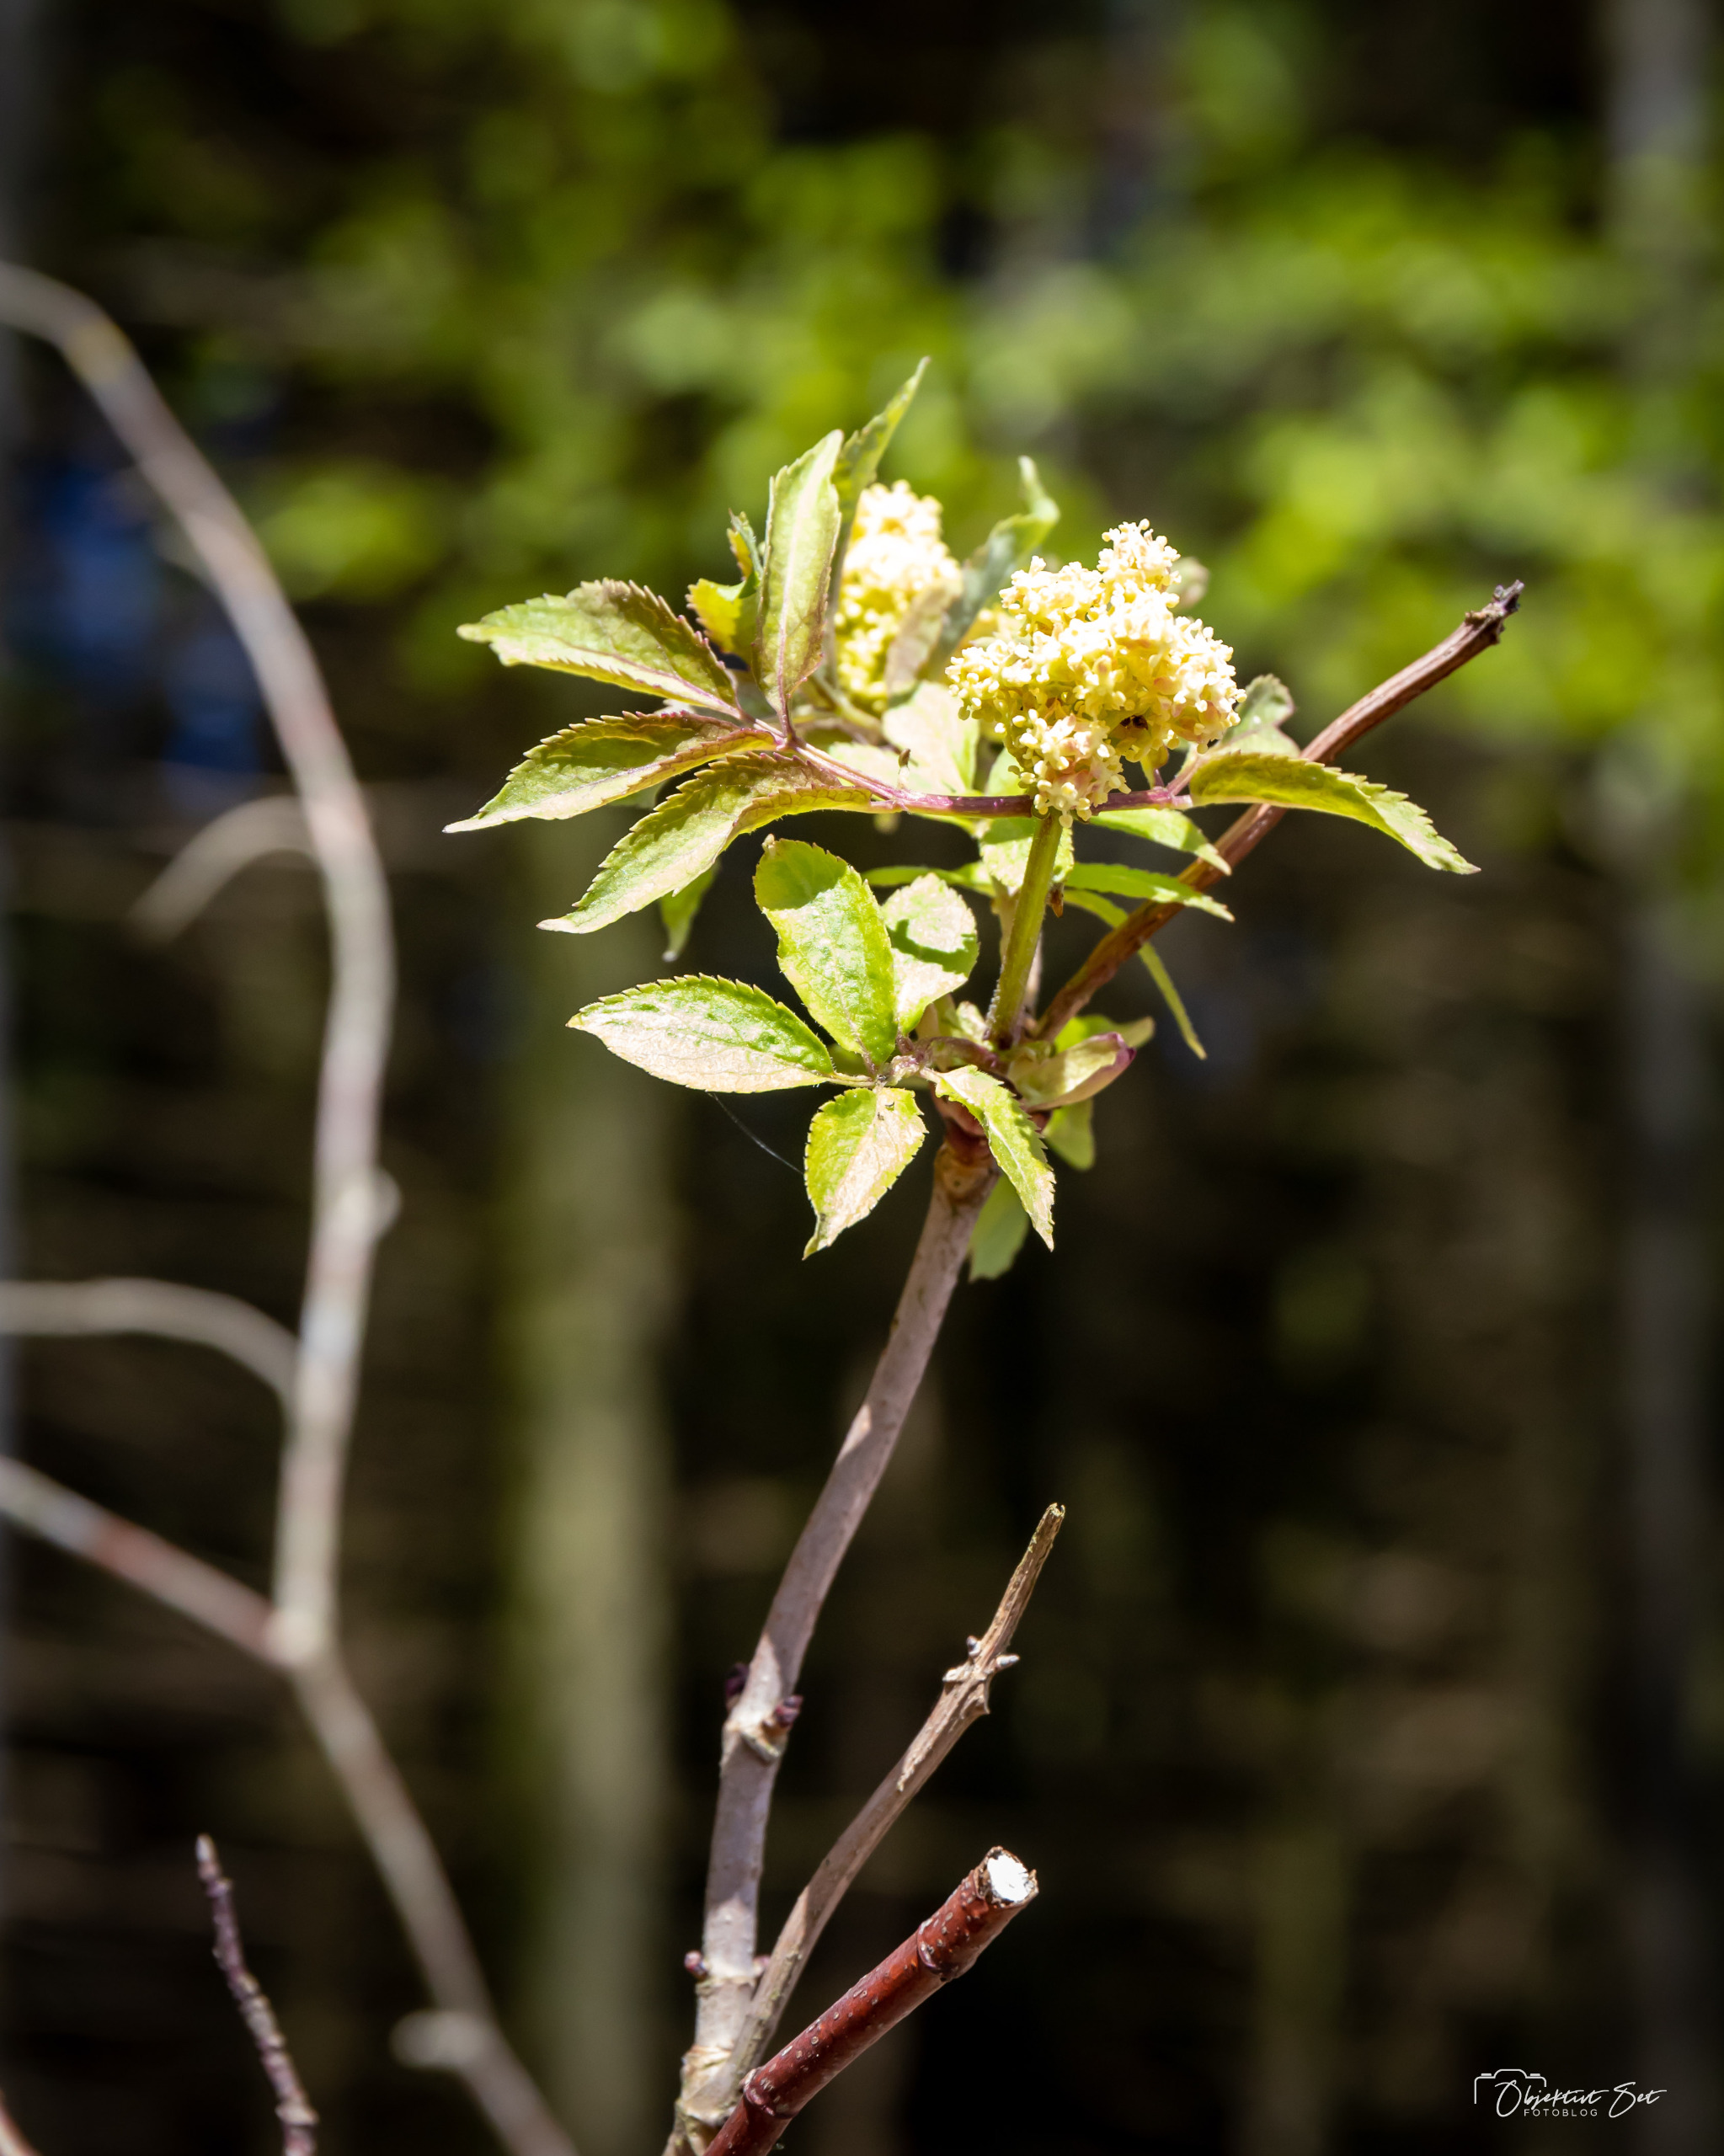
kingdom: Plantae
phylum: Tracheophyta
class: Magnoliopsida
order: Dipsacales
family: Viburnaceae
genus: Sambucus
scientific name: Sambucus racemosa
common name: Drue-hyld
